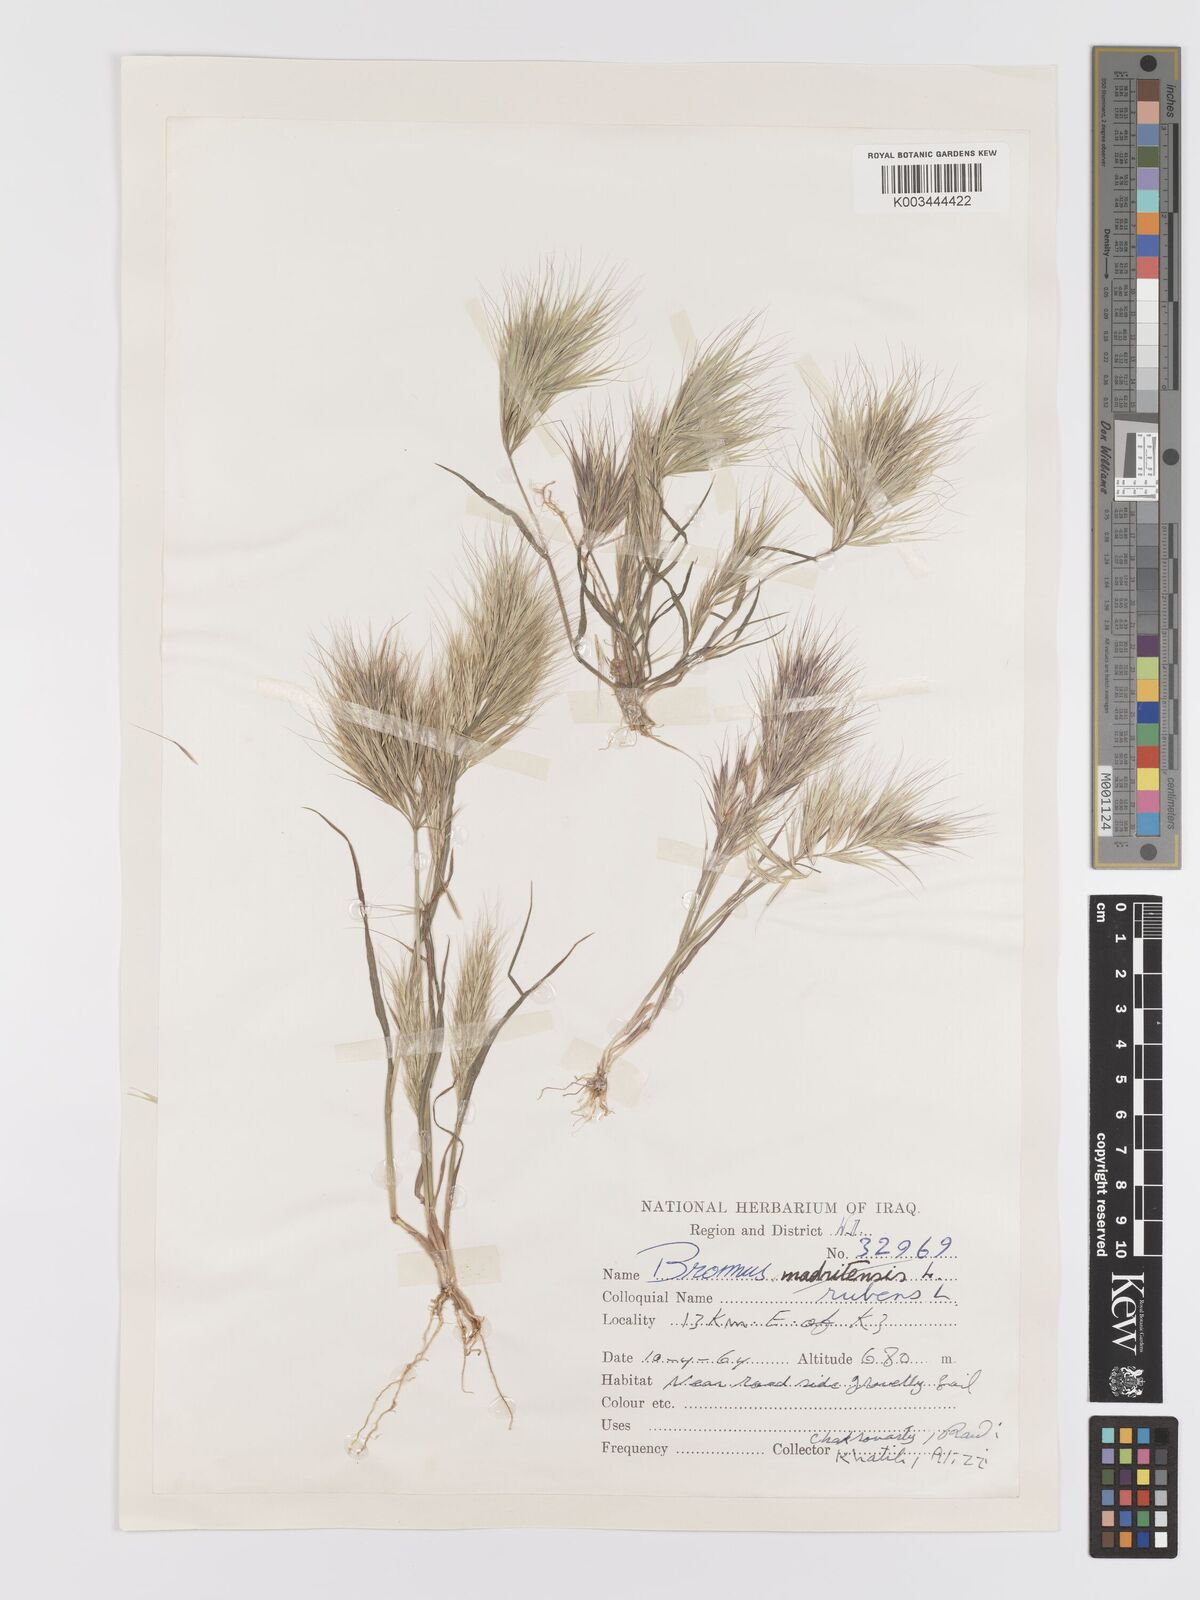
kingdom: Plantae
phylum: Tracheophyta
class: Liliopsida
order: Poales
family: Poaceae
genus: Bromus
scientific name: Bromus rubens
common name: Red brome
